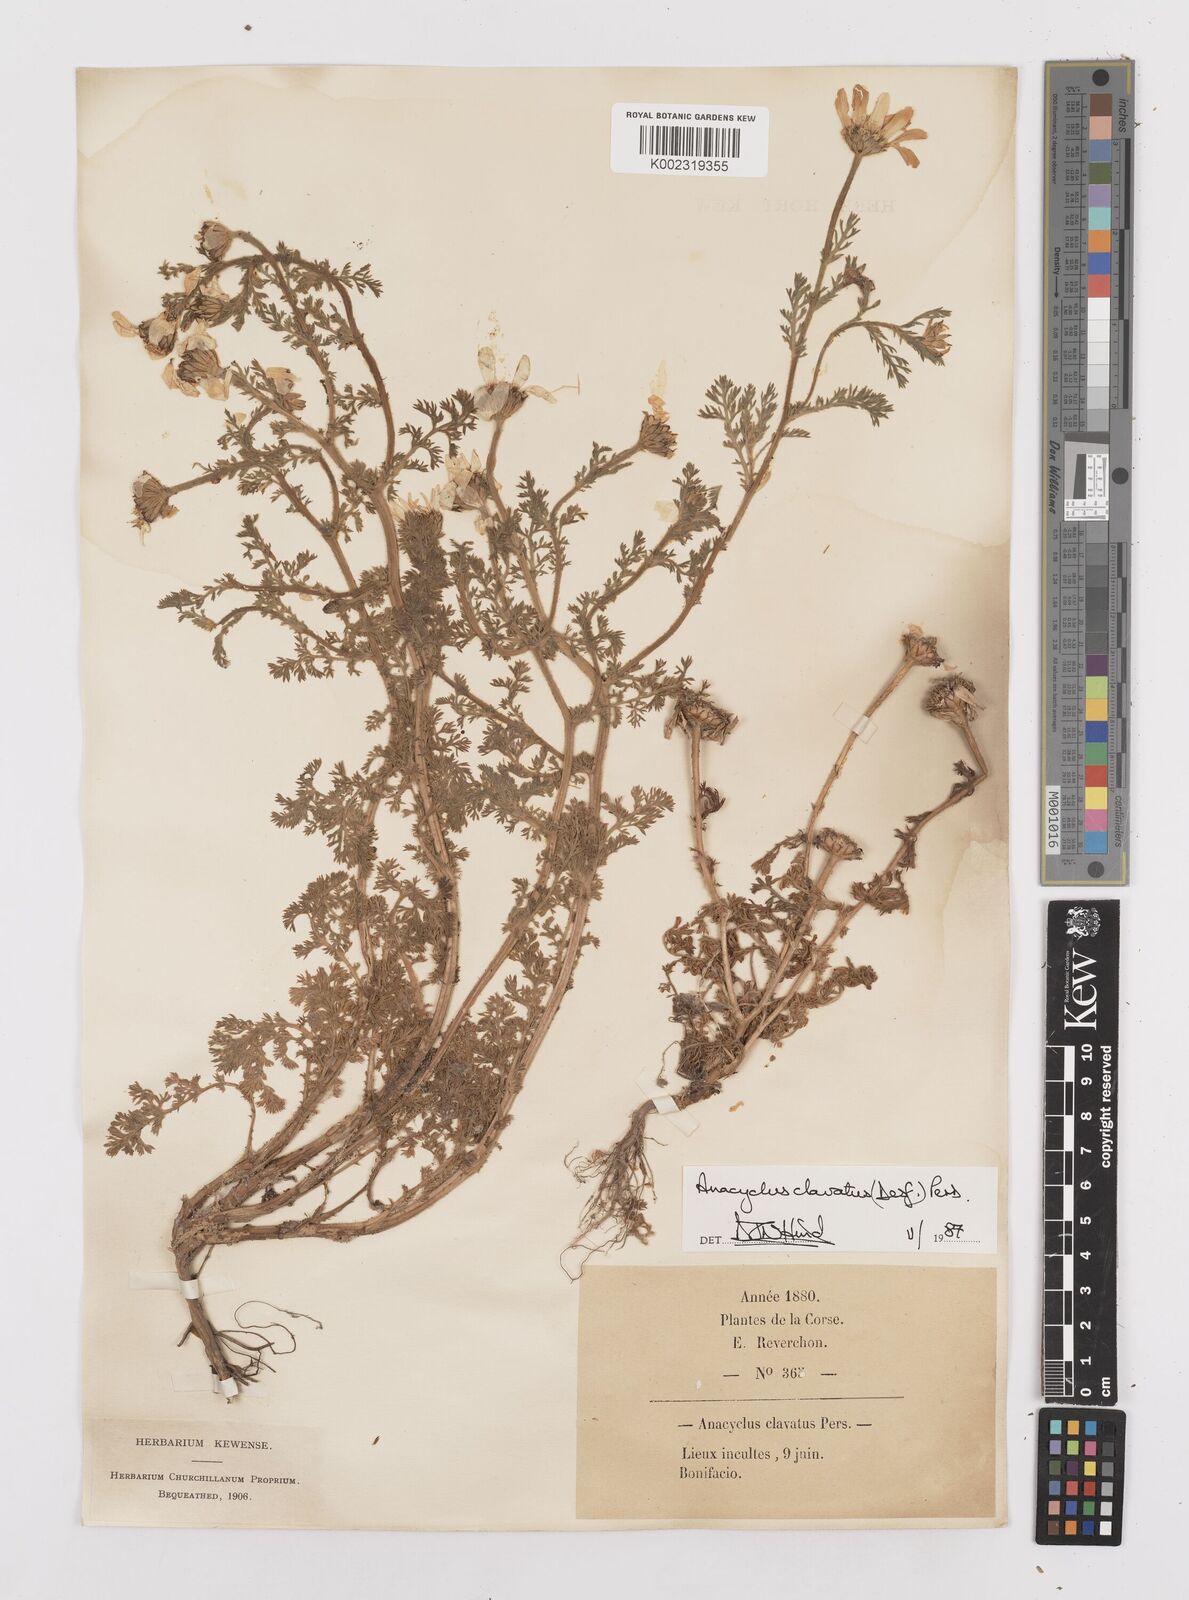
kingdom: Plantae
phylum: Tracheophyta
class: Magnoliopsida
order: Asterales
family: Asteraceae
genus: Anacyclus
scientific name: Anacyclus clavatus
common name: Whitebuttons
